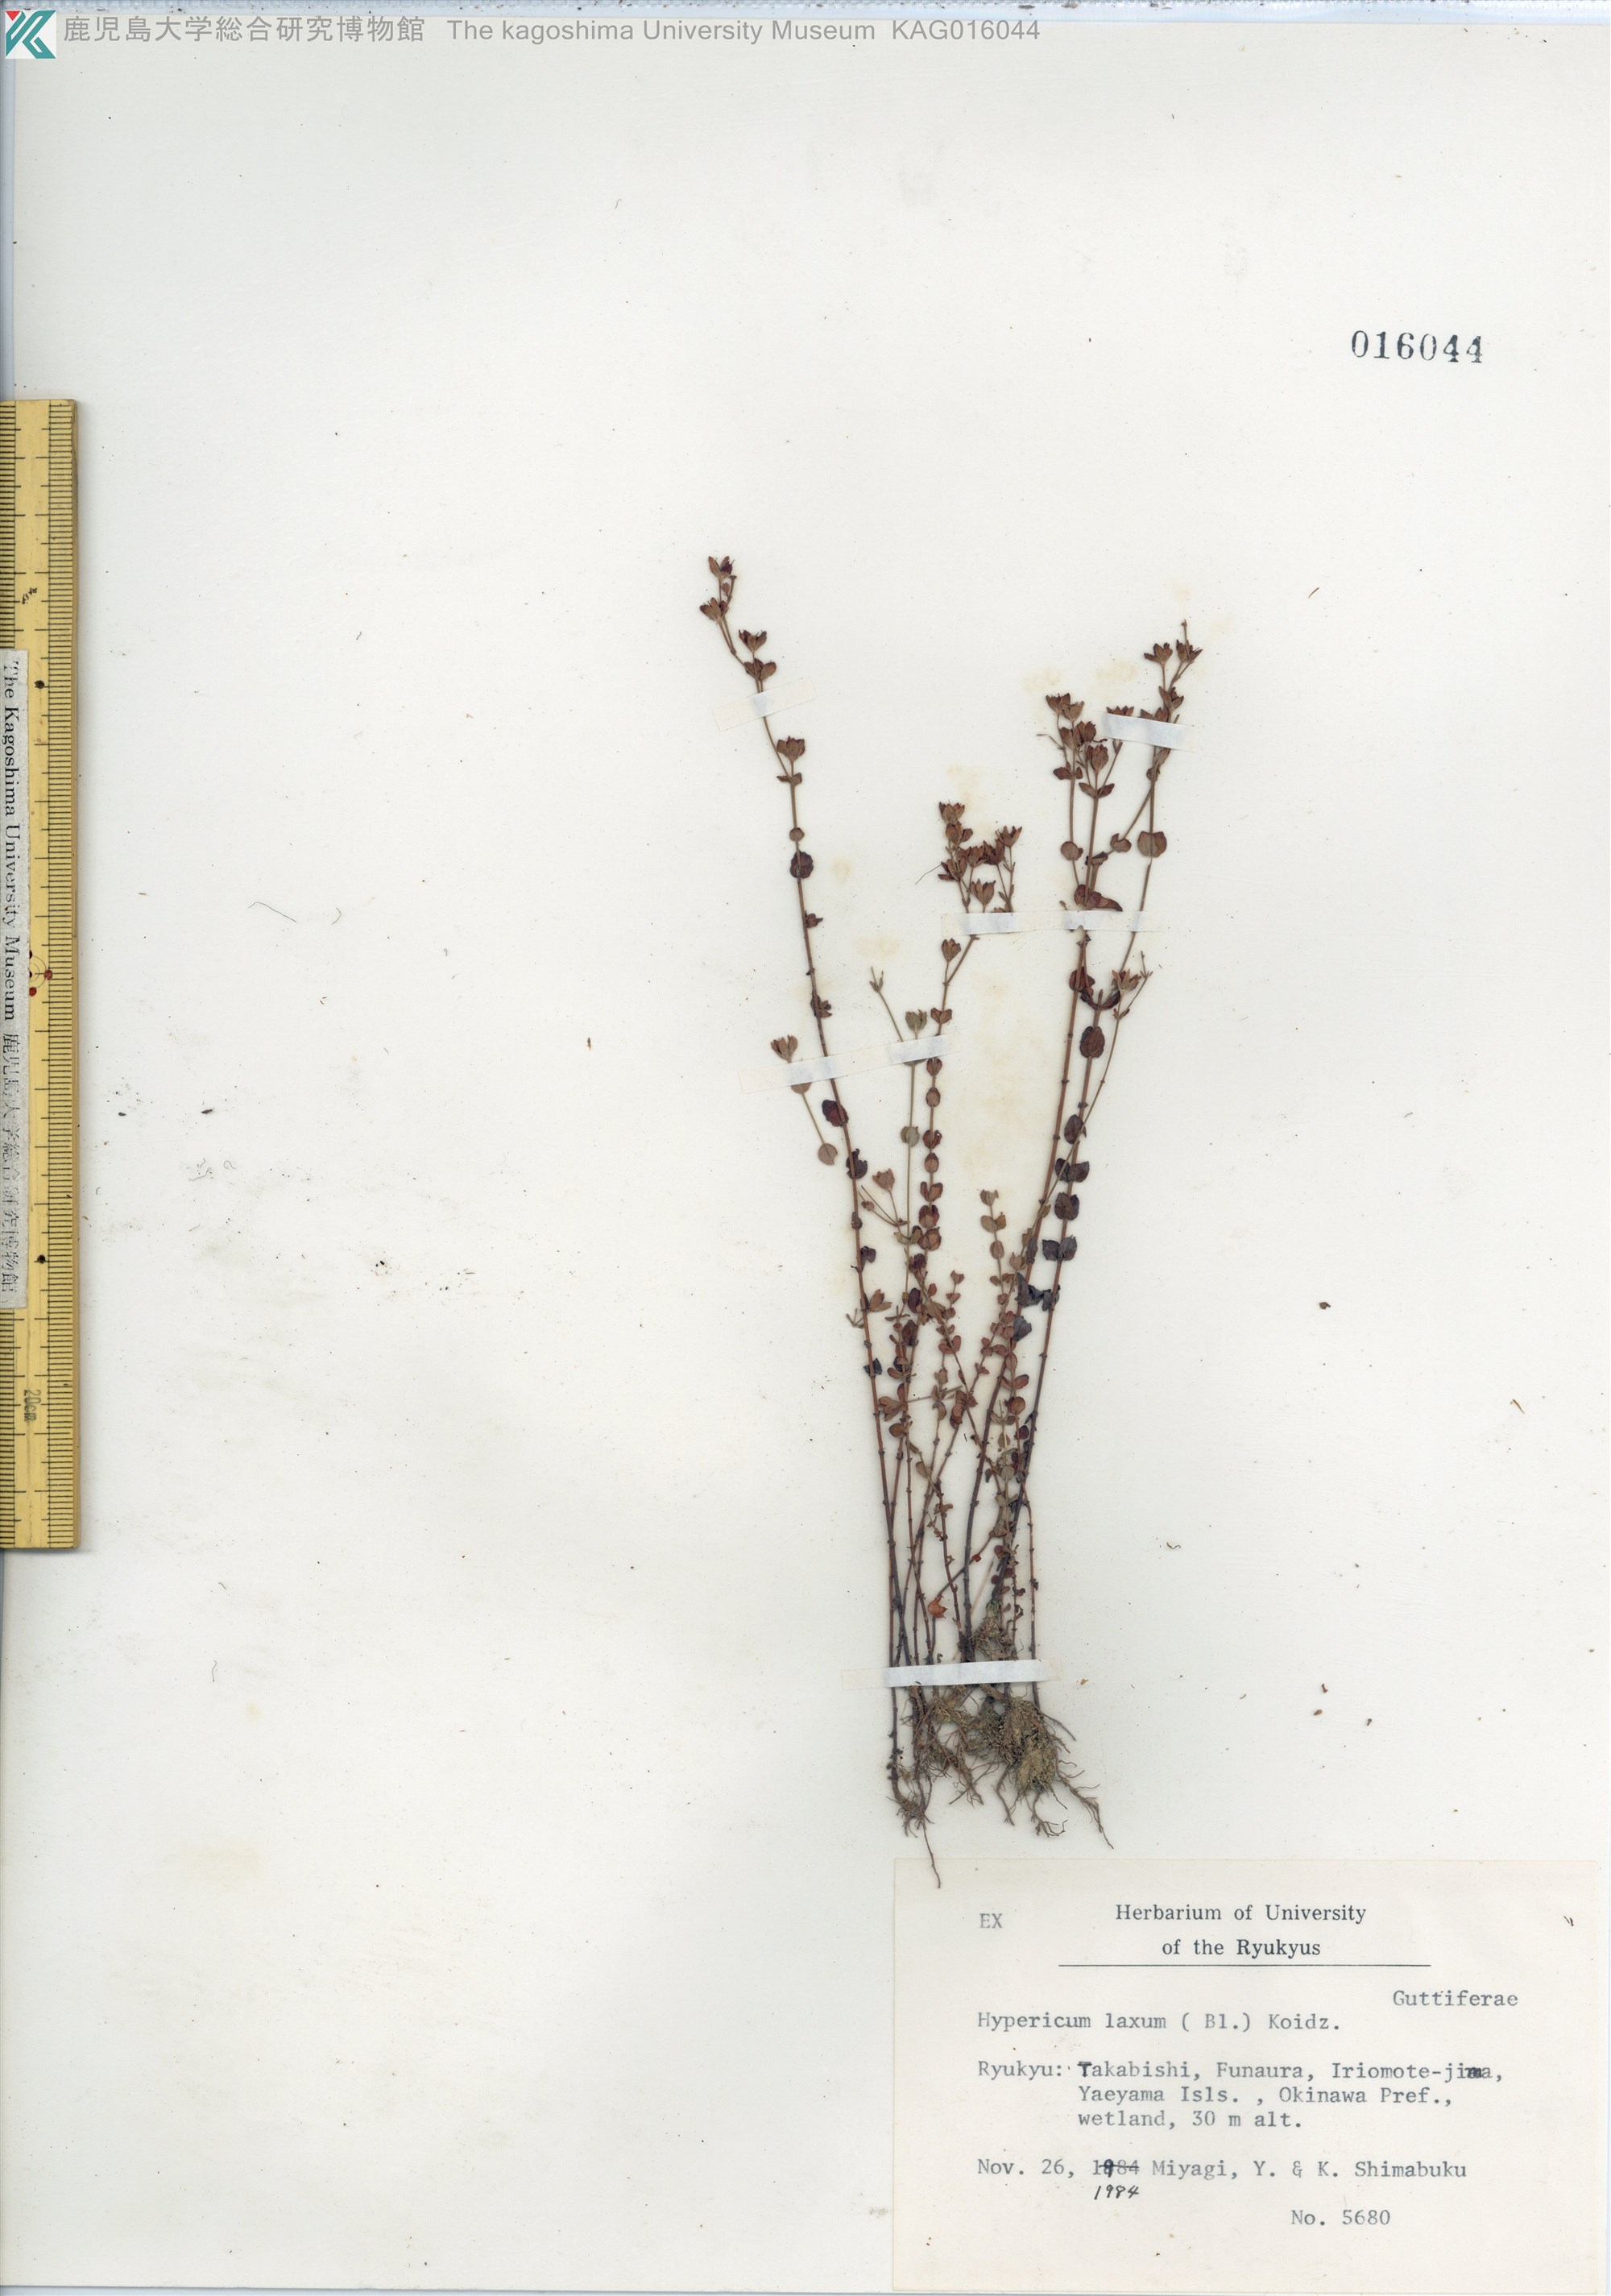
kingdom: Plantae
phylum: Tracheophyta
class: Magnoliopsida
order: Malpighiales
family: Hypericaceae
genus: Hypericum
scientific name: Hypericum japonicum
